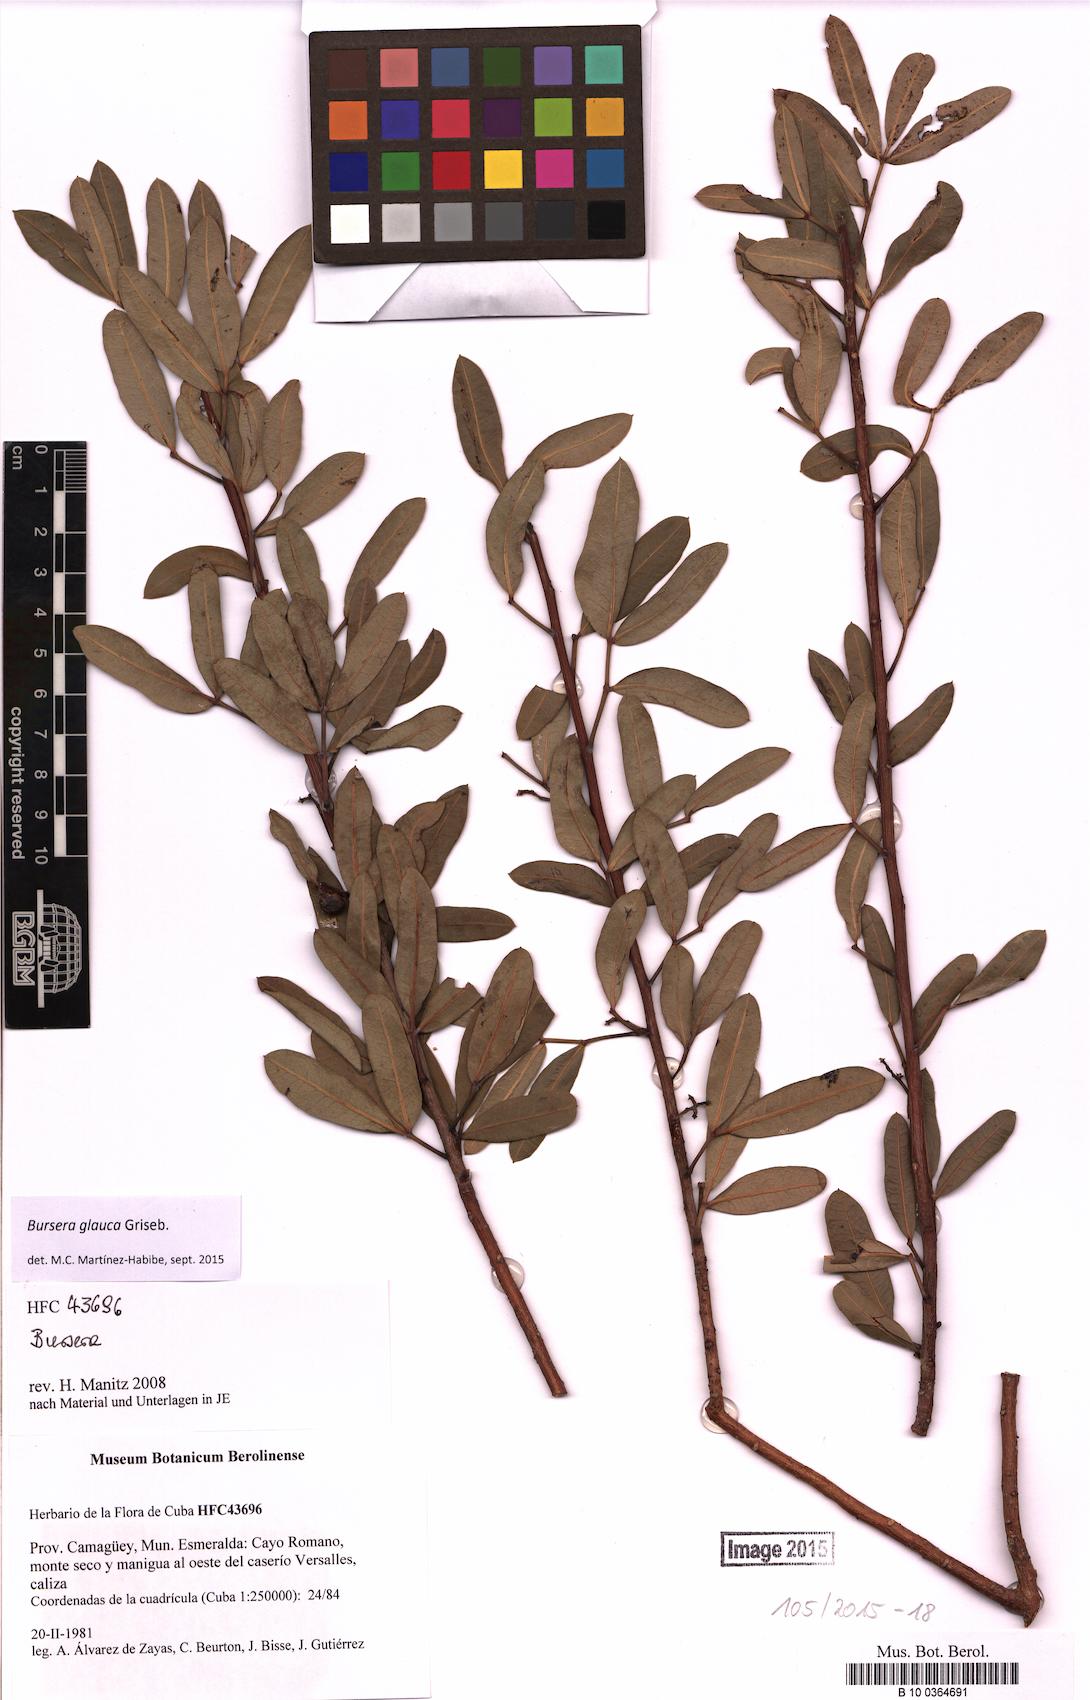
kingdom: Plantae
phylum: Tracheophyta
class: Magnoliopsida
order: Sapindales
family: Burseraceae
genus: Bursera
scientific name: Bursera glauca
